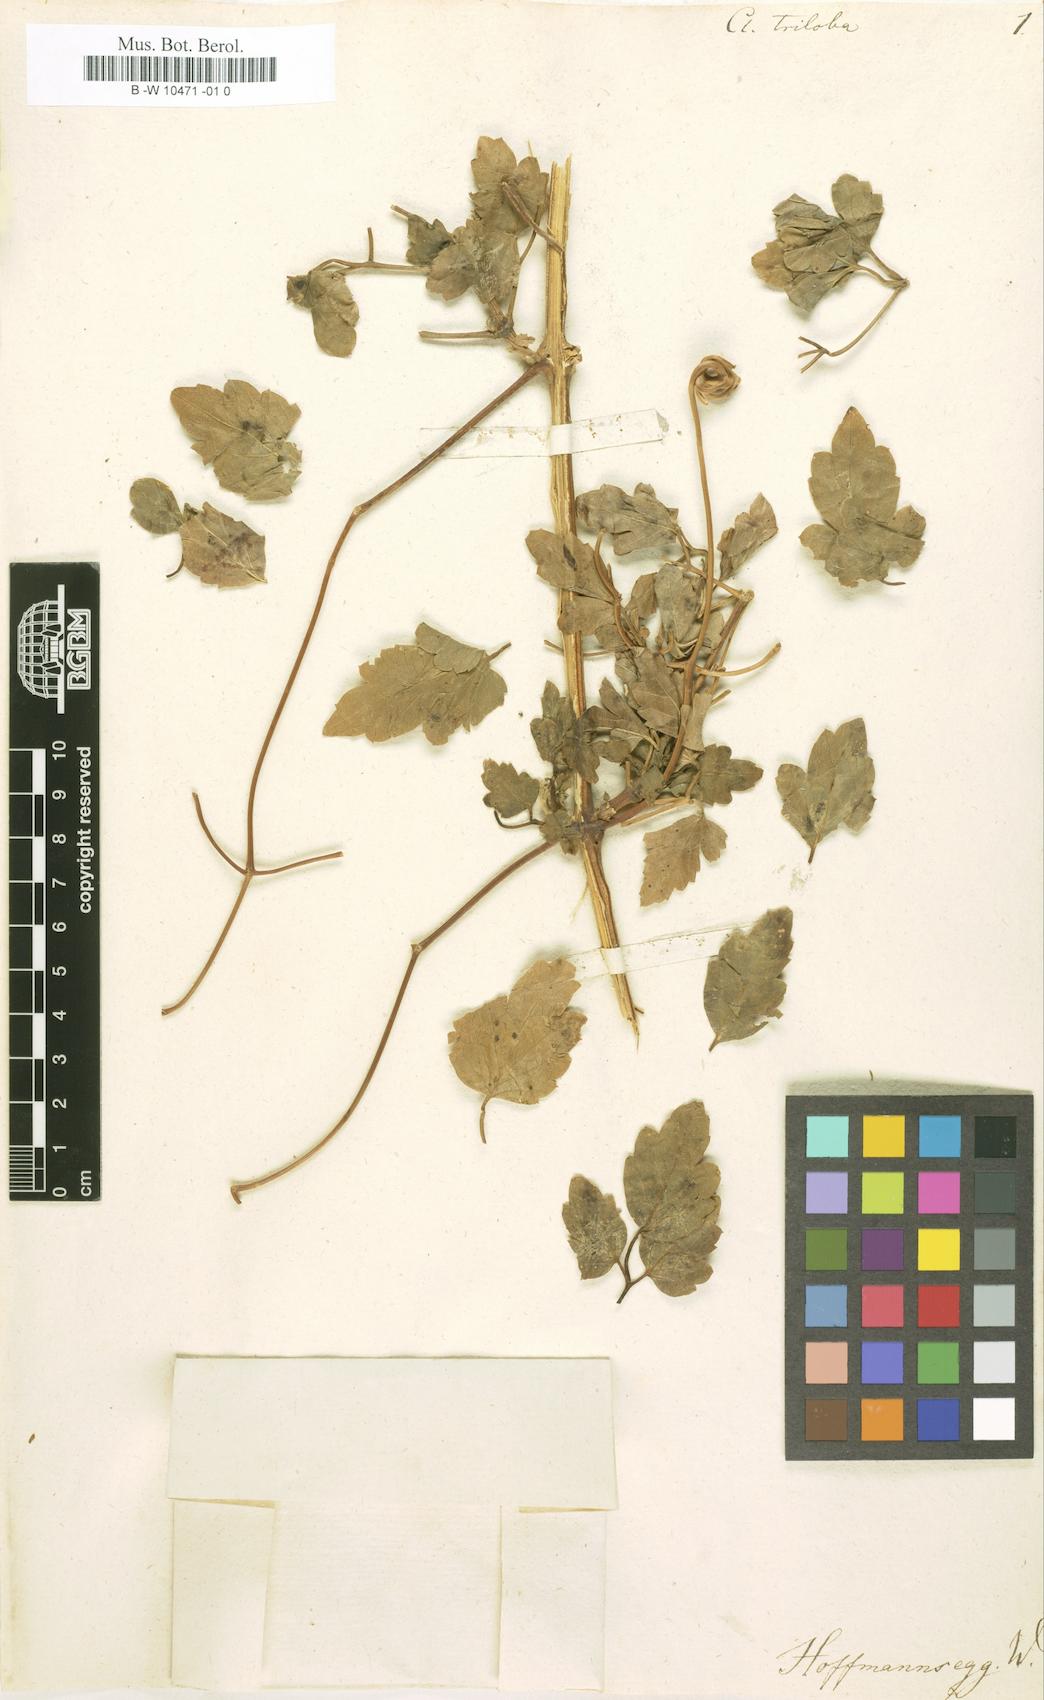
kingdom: Plantae
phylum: Tracheophyta
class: Magnoliopsida
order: Ranunculales
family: Ranunculaceae
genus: Clematis
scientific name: Clematis triloba
